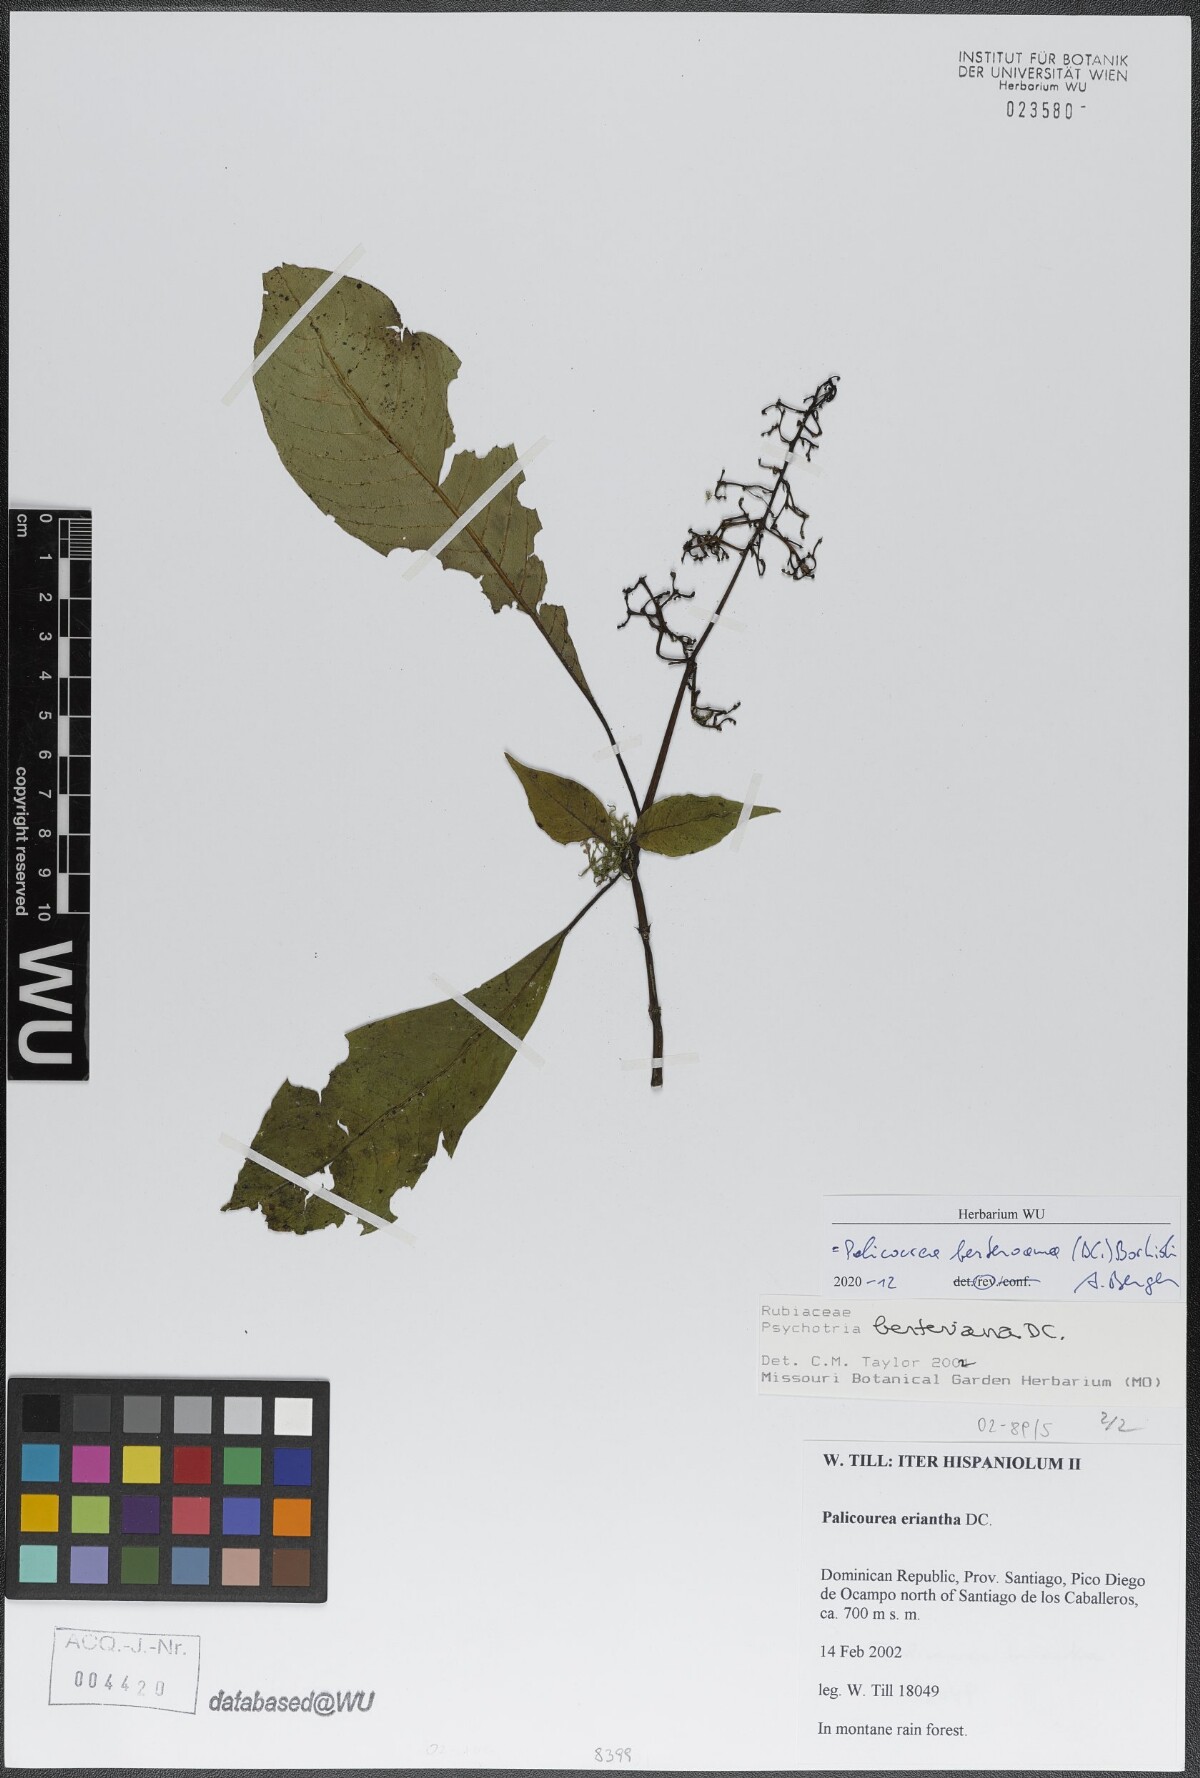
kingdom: Plantae
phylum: Tracheophyta
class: Magnoliopsida
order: Gentianales
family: Rubiaceae
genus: Palicourea
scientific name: Palicourea berteroana
